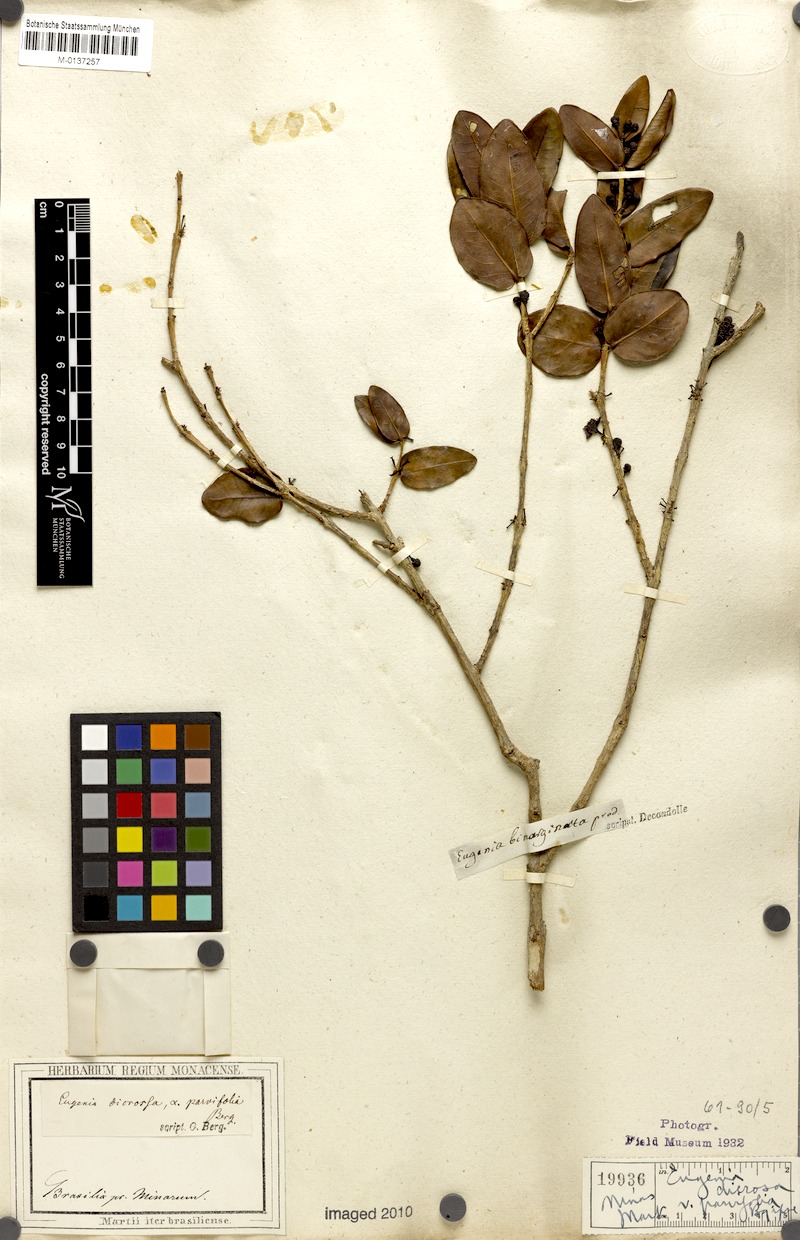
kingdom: Plantae
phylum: Tracheophyta
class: Magnoliopsida
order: Myrtales
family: Myrtaceae
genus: Eugenia
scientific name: Eugenia bimarginata
